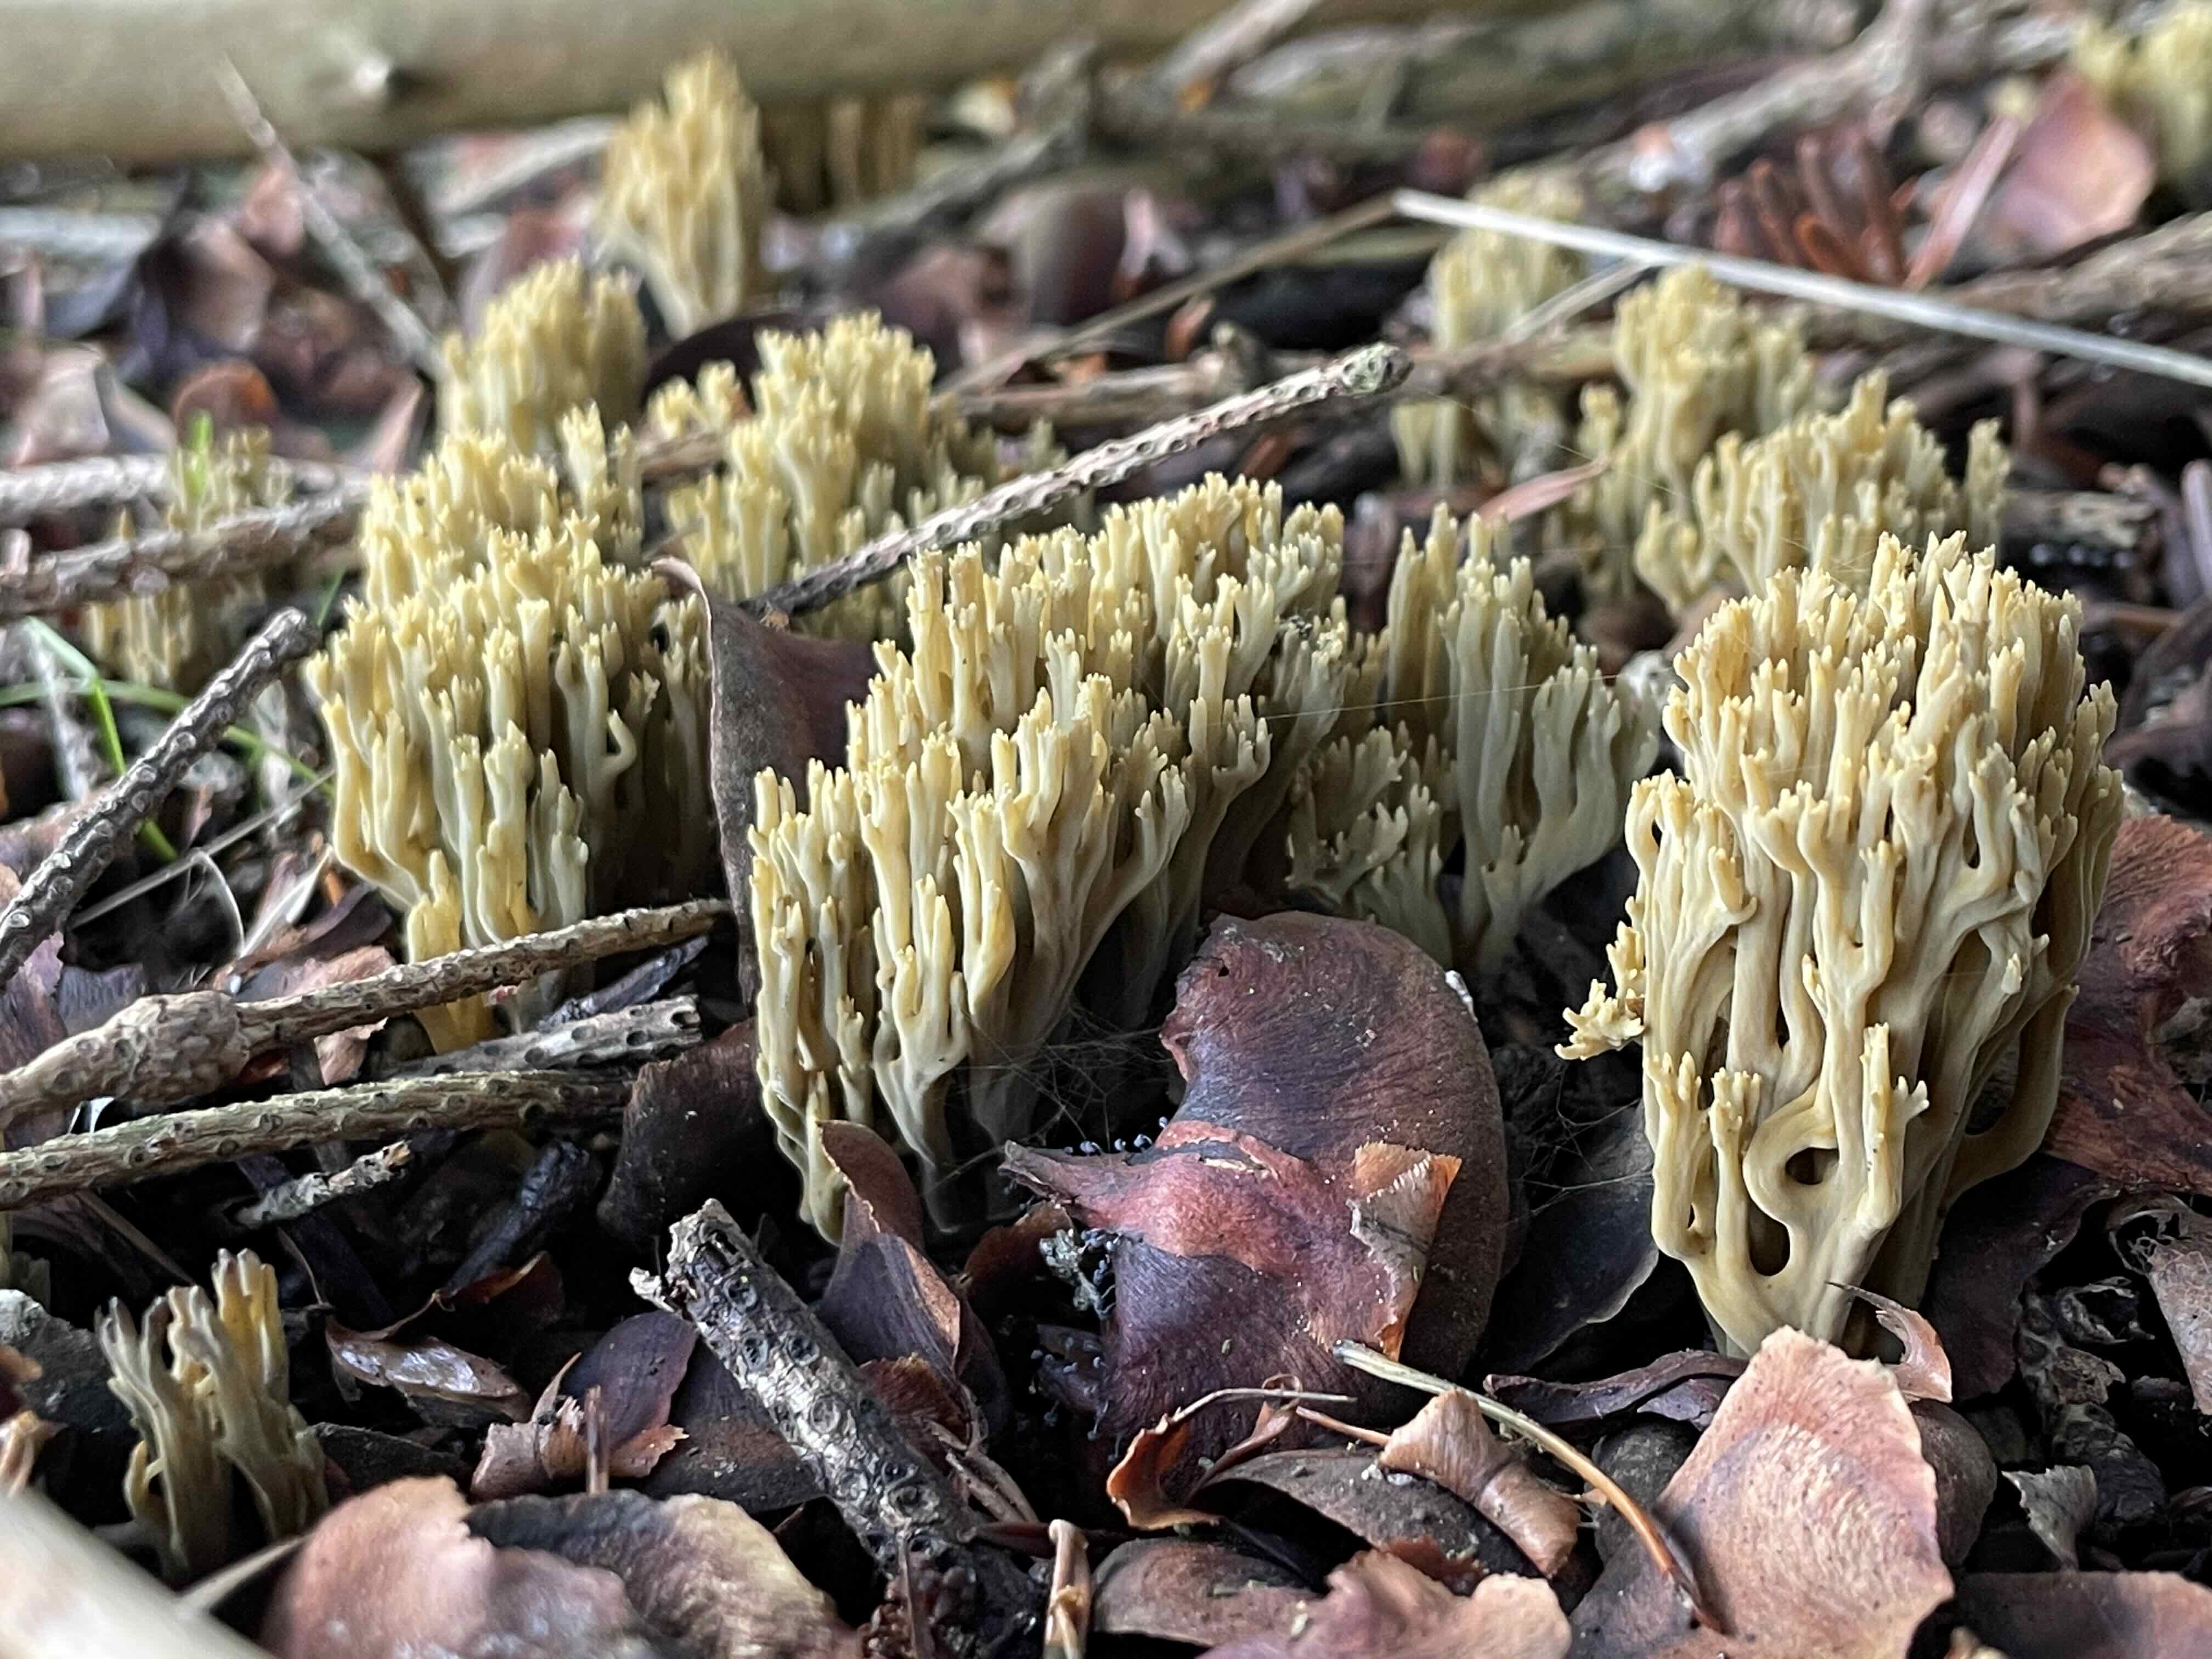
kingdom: Fungi
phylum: Basidiomycota
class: Agaricomycetes
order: Gomphales
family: Gomphaceae
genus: Phaeoclavulina
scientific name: Phaeoclavulina abietina
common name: gulgrøn koralsvamp
